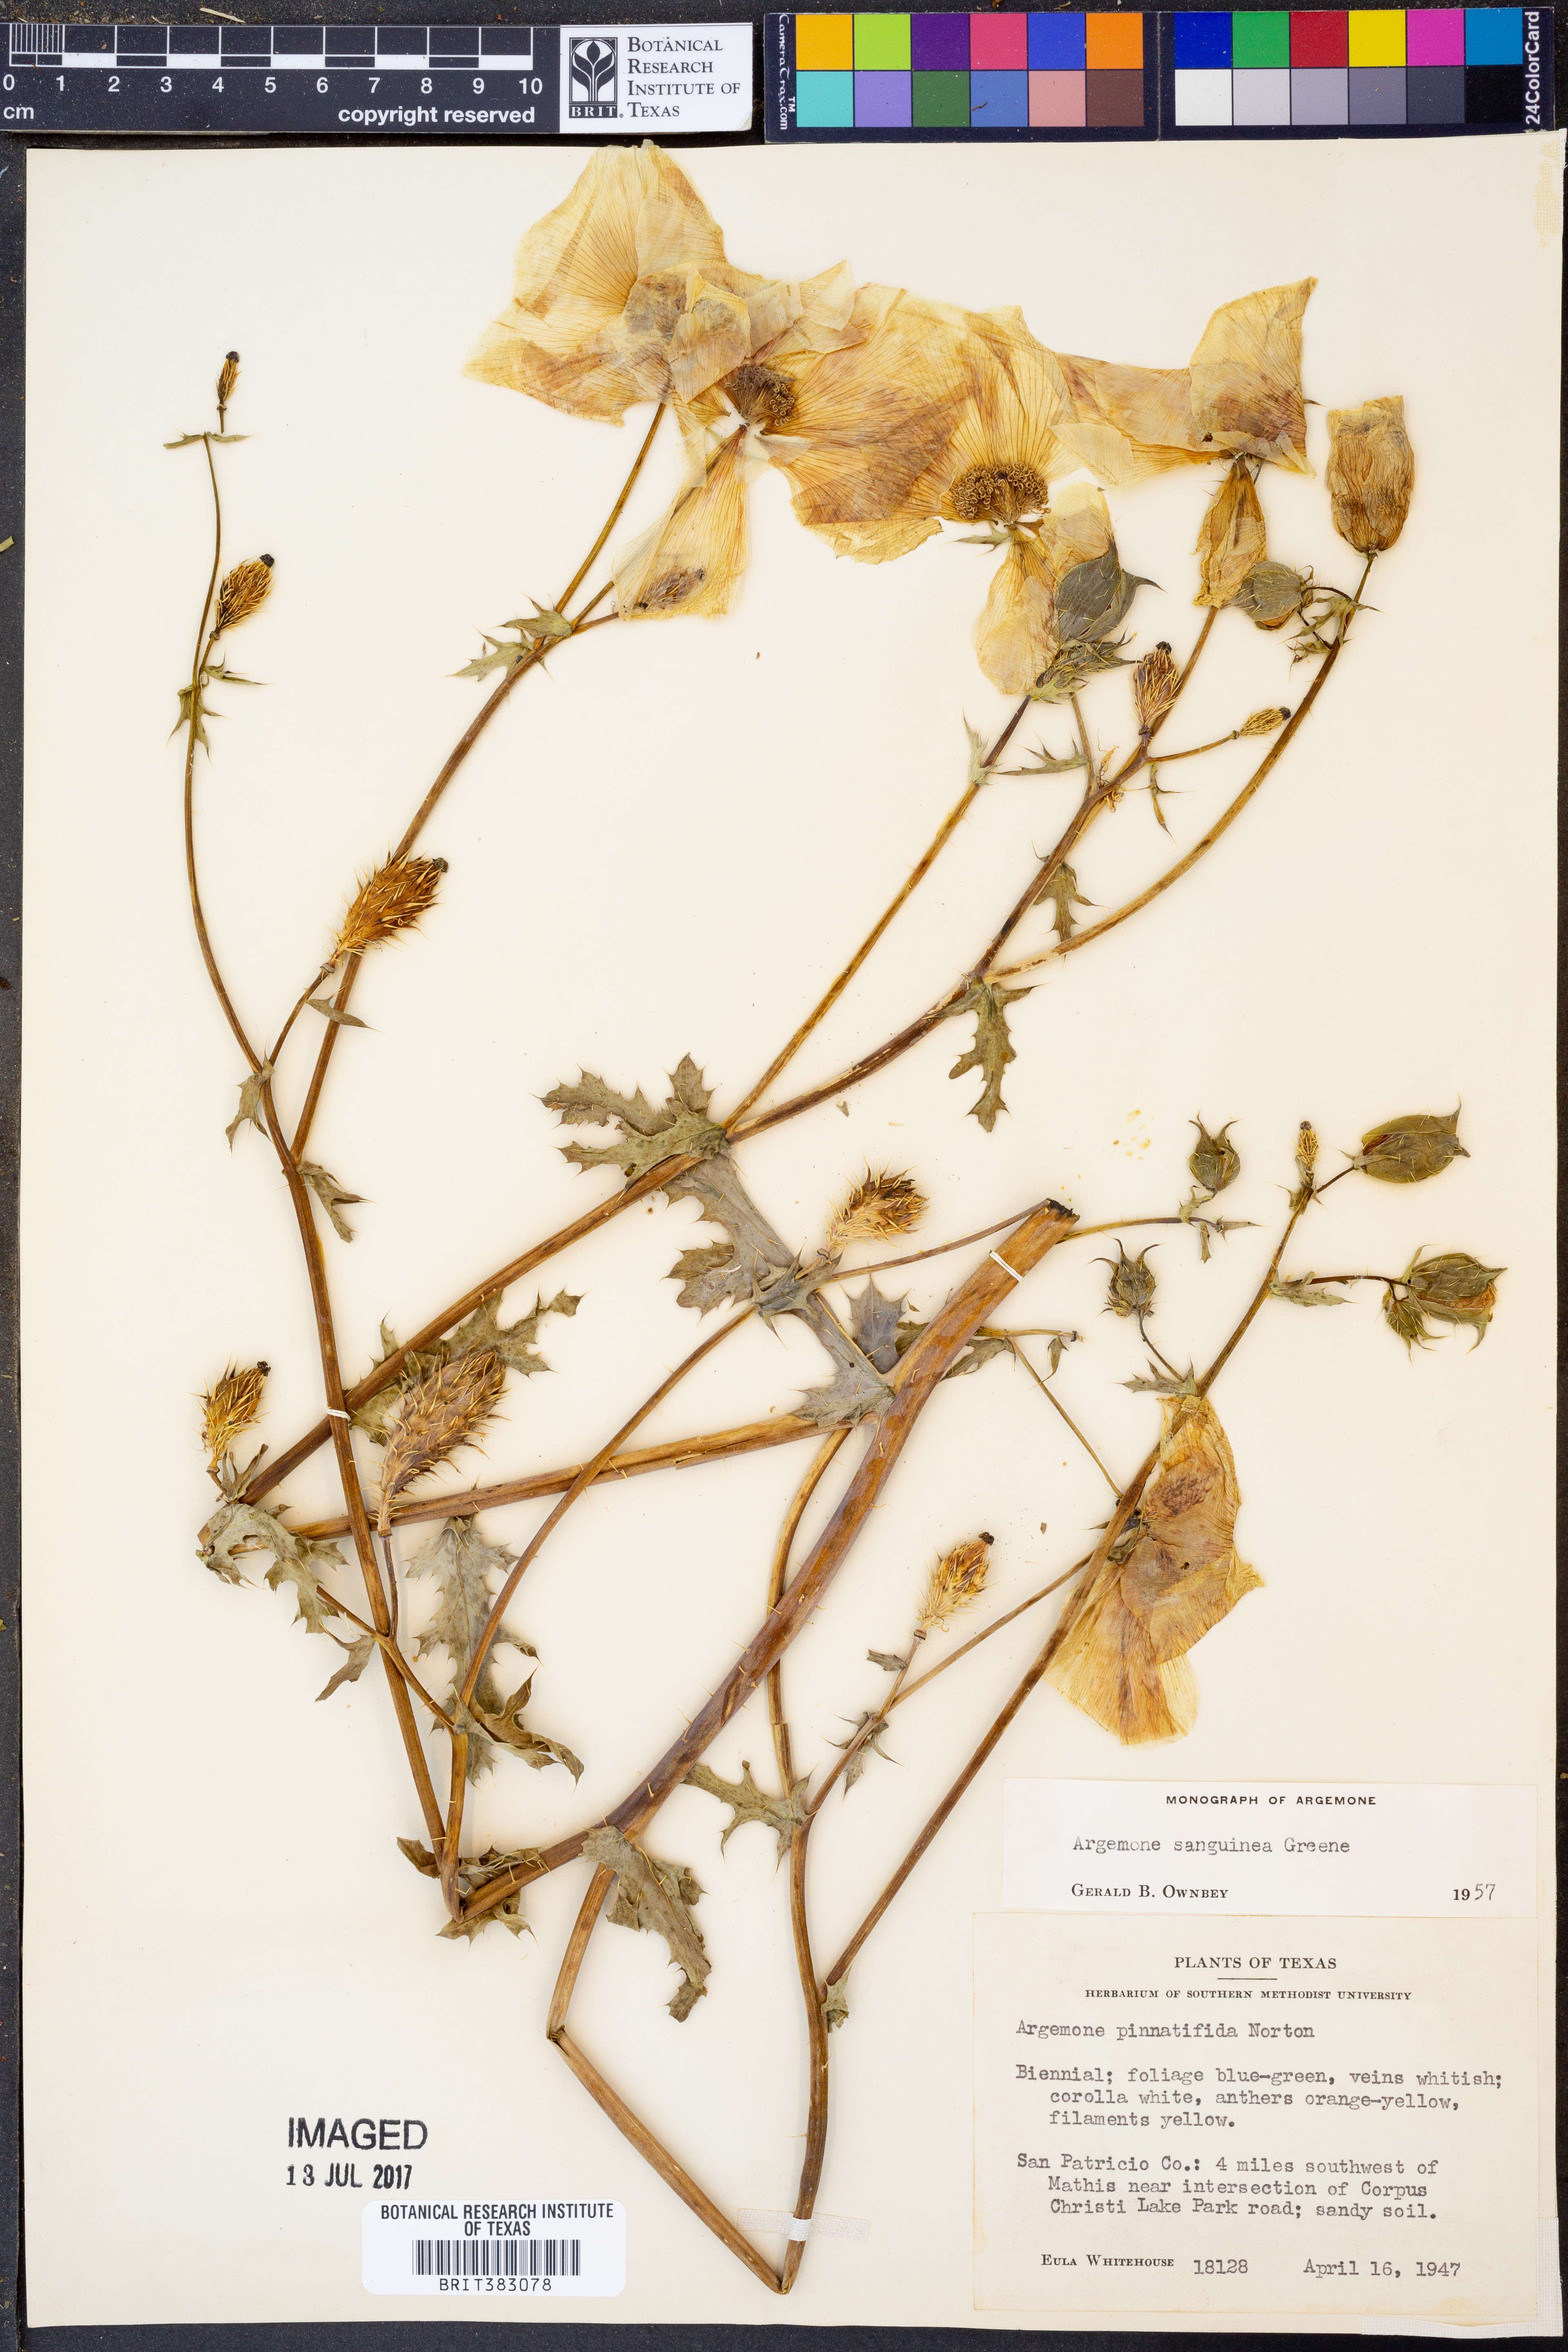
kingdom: Plantae
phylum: Tracheophyta
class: Magnoliopsida
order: Ranunculales
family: Papaveraceae
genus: Argemone
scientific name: Argemone sanguinea
